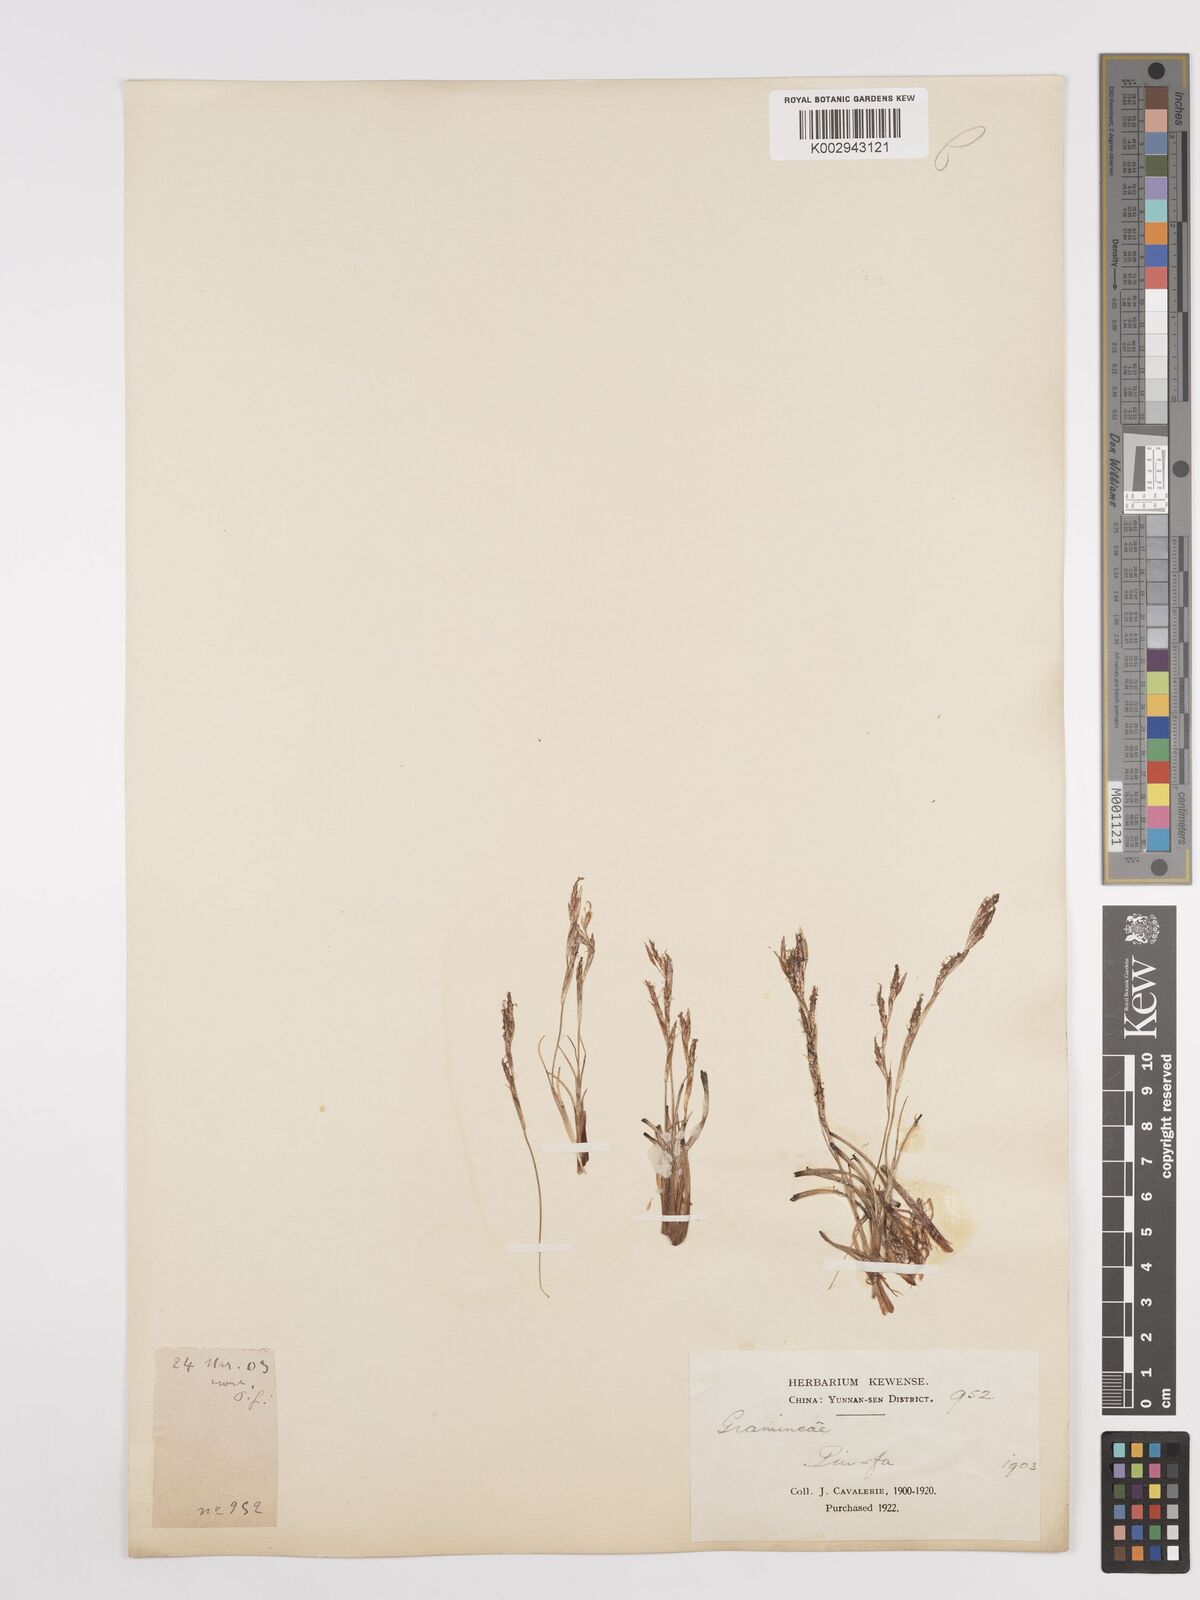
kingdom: Plantae
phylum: Tracheophyta
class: Liliopsida
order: Poales
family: Cyperaceae
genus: Carex
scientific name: Carex
